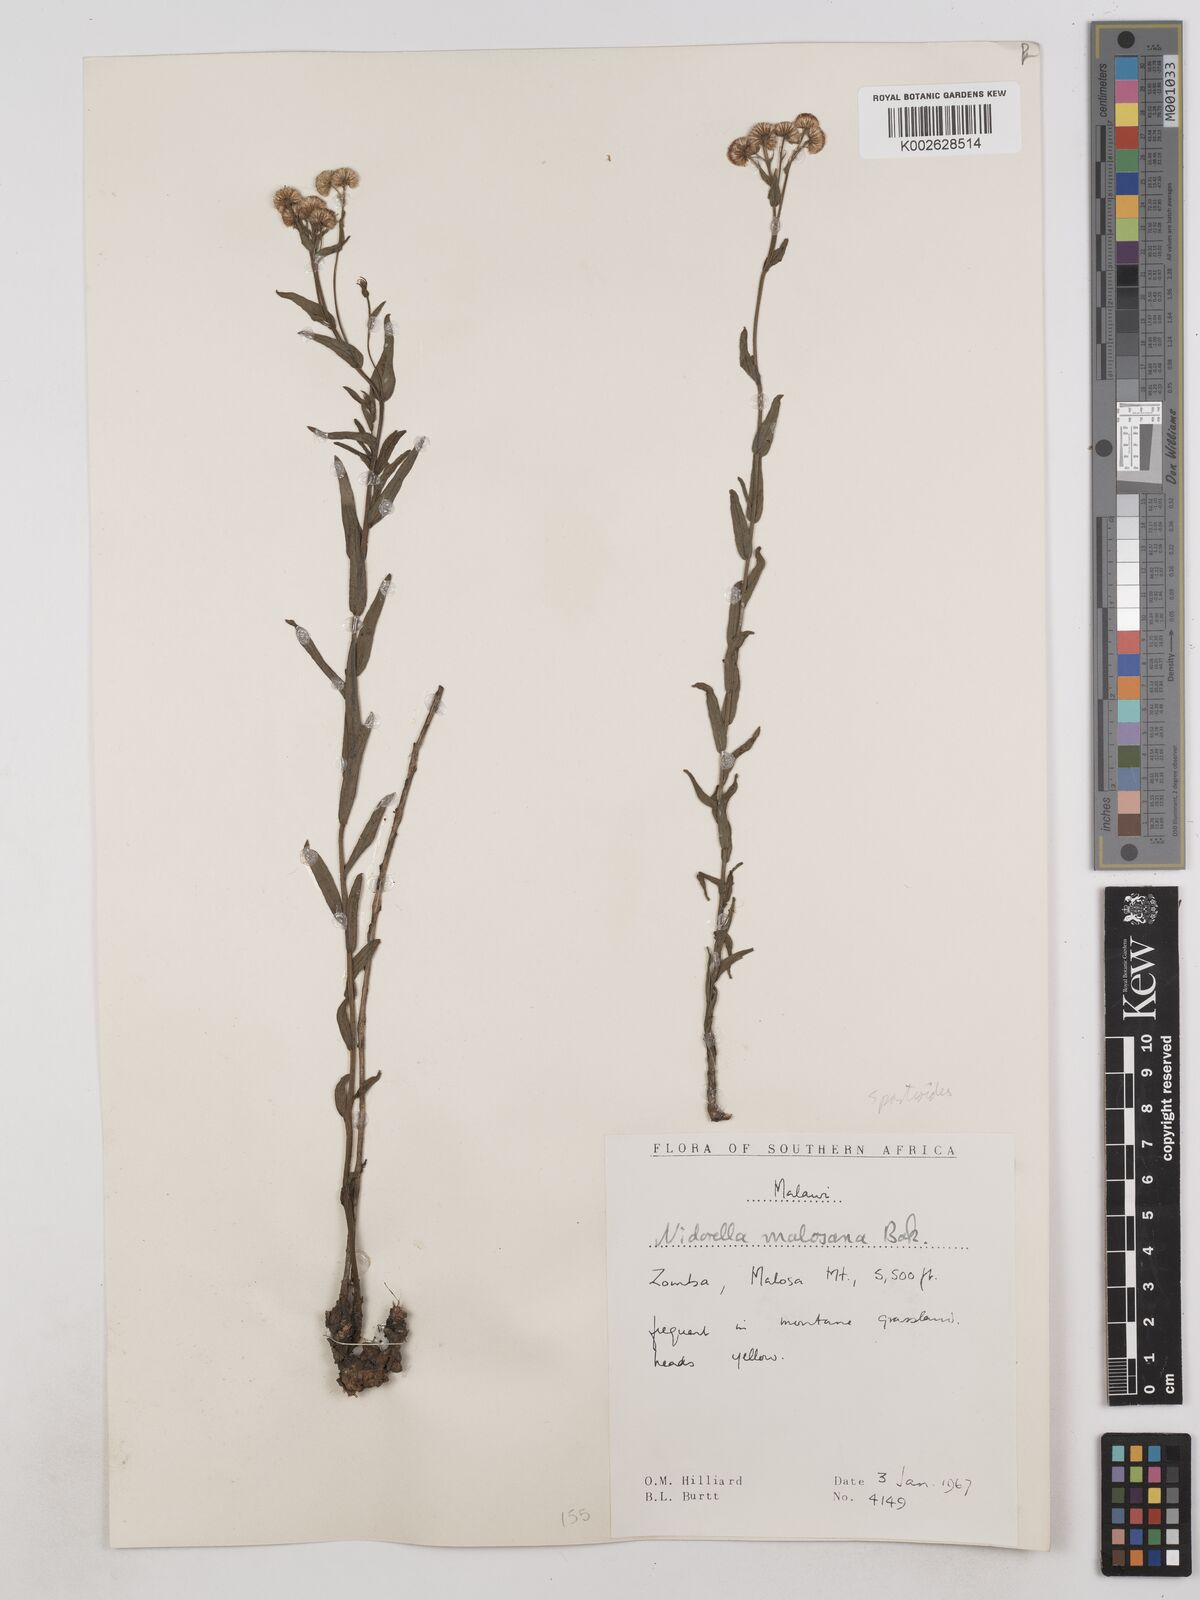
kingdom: Plantae
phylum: Tracheophyta
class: Magnoliopsida
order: Asterales
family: Asteraceae
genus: Nidorella
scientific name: Nidorella spartioides
